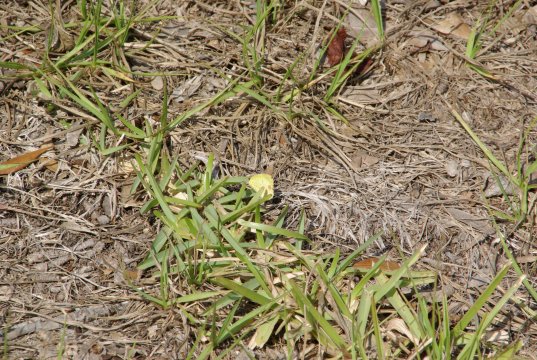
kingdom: Animalia
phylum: Arthropoda
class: Insecta
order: Lepidoptera
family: Pieridae
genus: Pyrisitia
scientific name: Pyrisitia lisa
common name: Little Yellow
